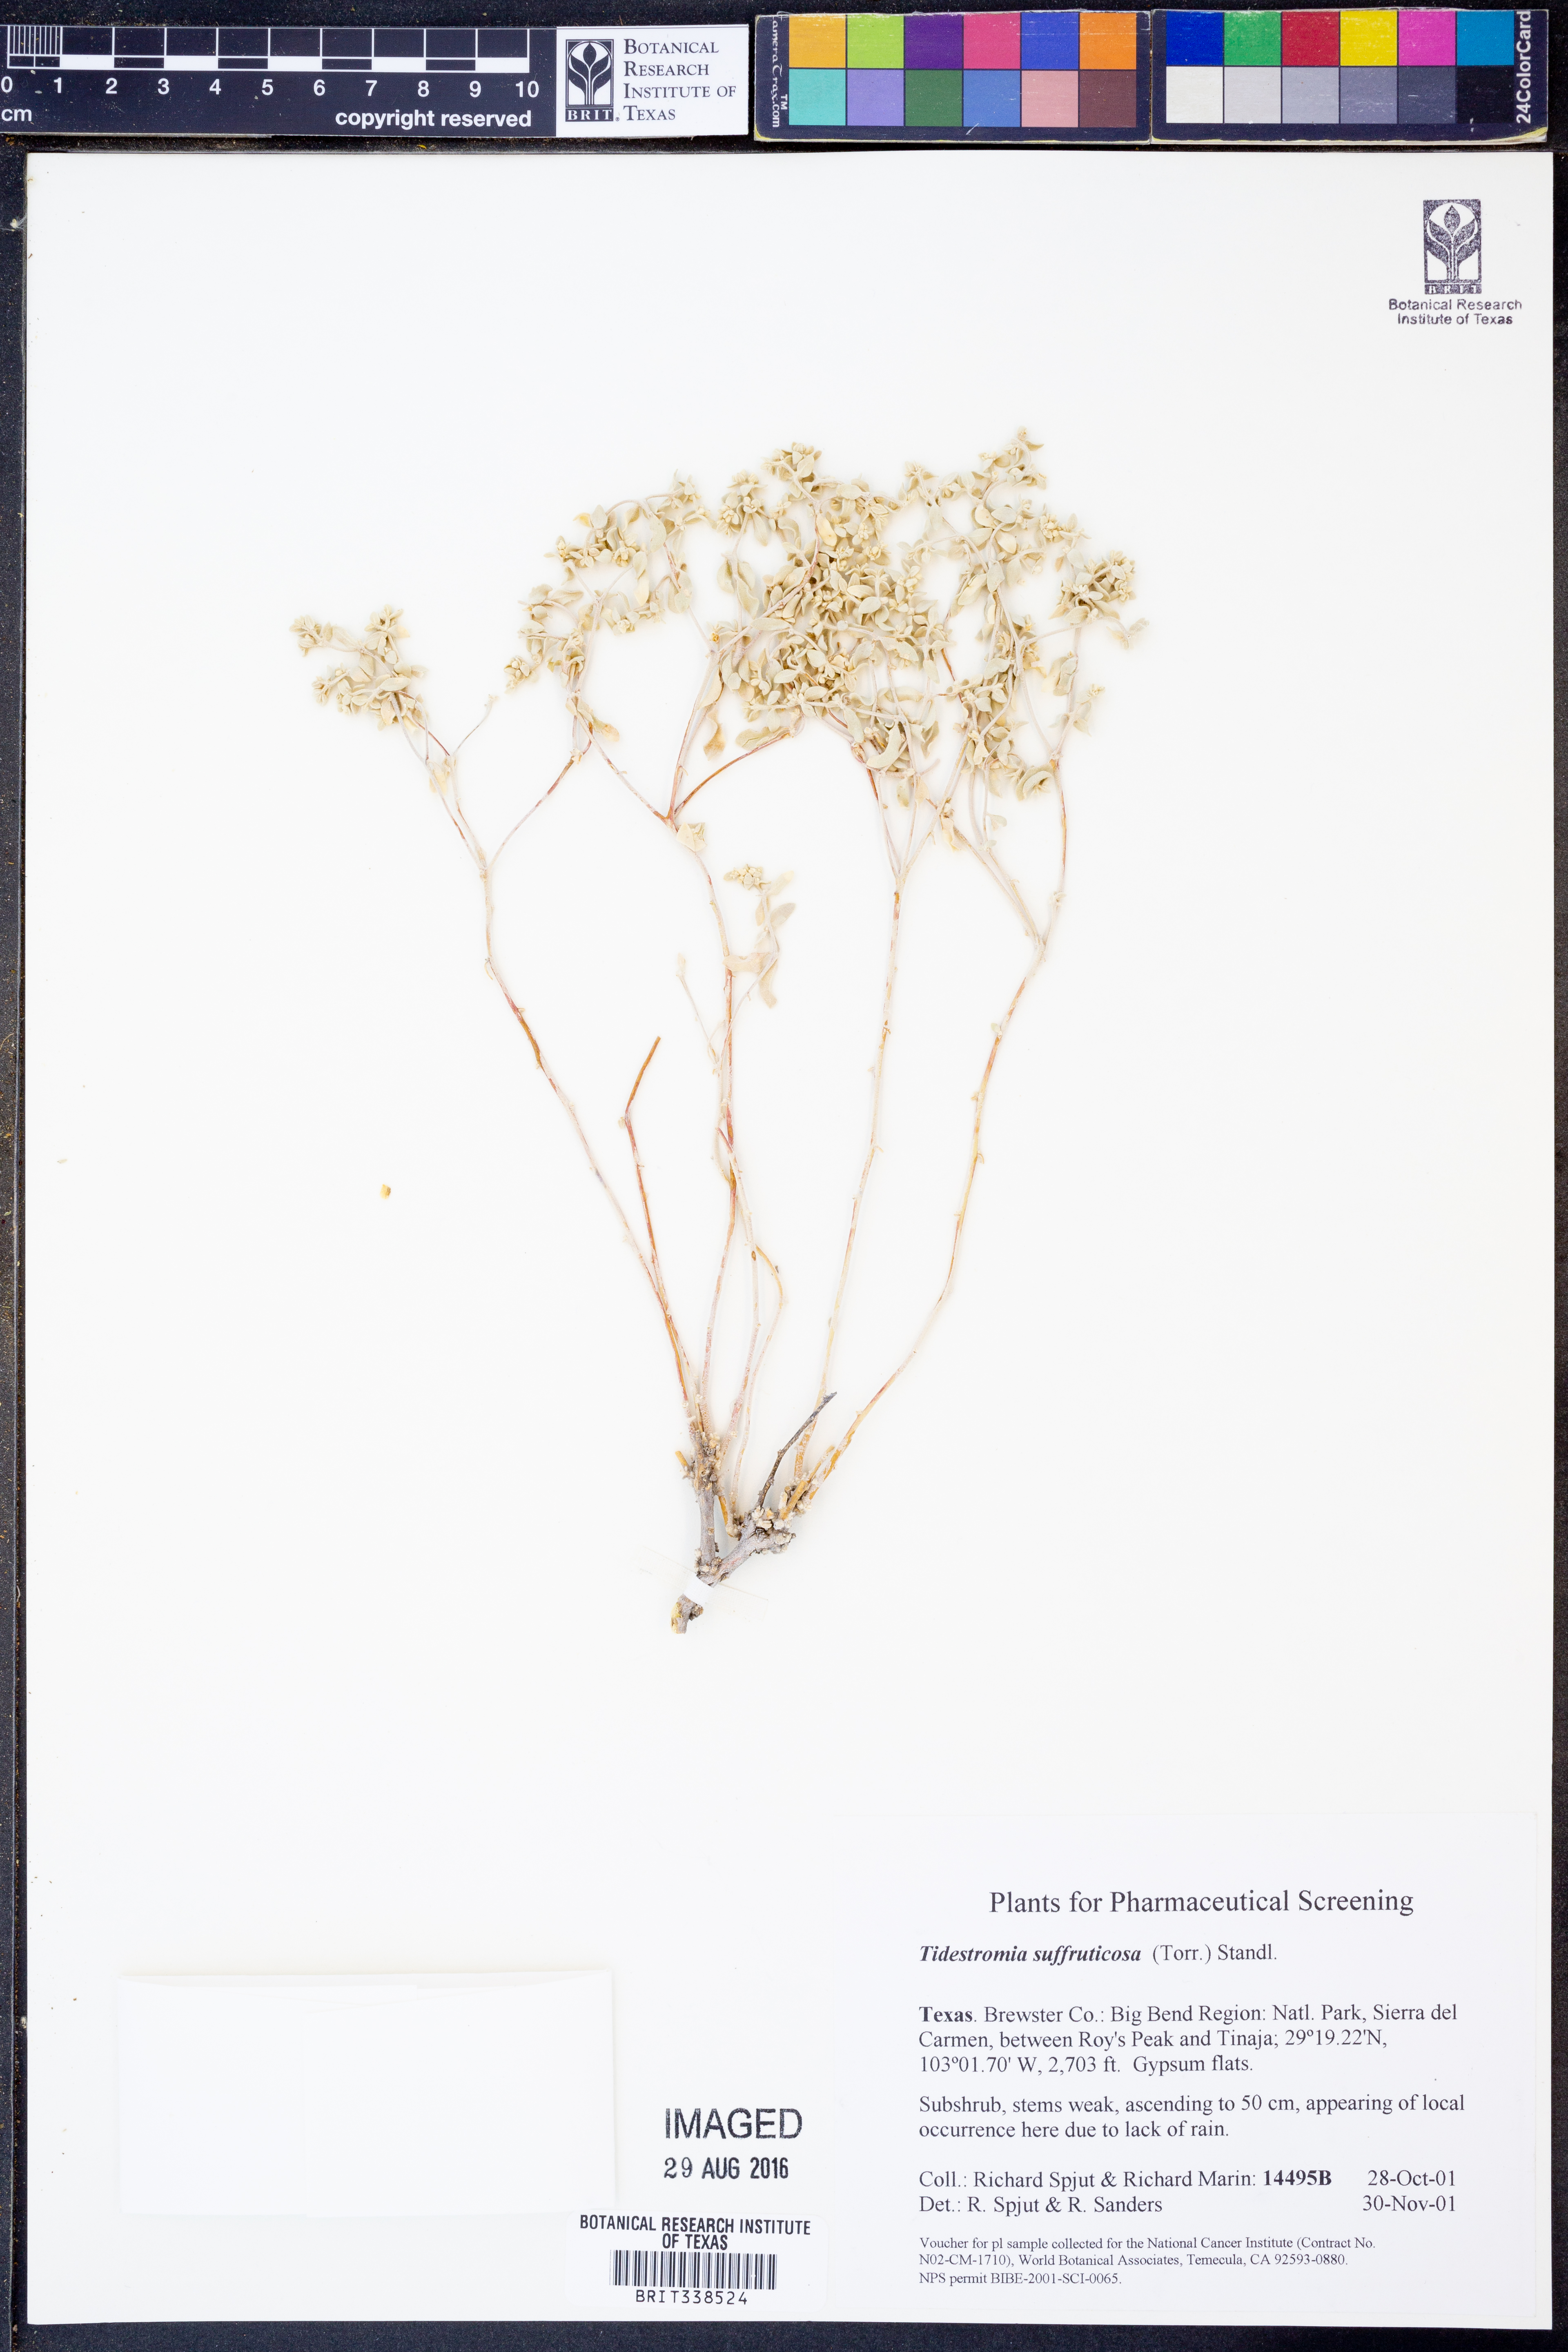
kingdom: Plantae
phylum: Tracheophyta
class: Magnoliopsida
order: Caryophyllales
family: Amaranthaceae
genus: Tidestromia
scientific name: Tidestromia suffruticosa
